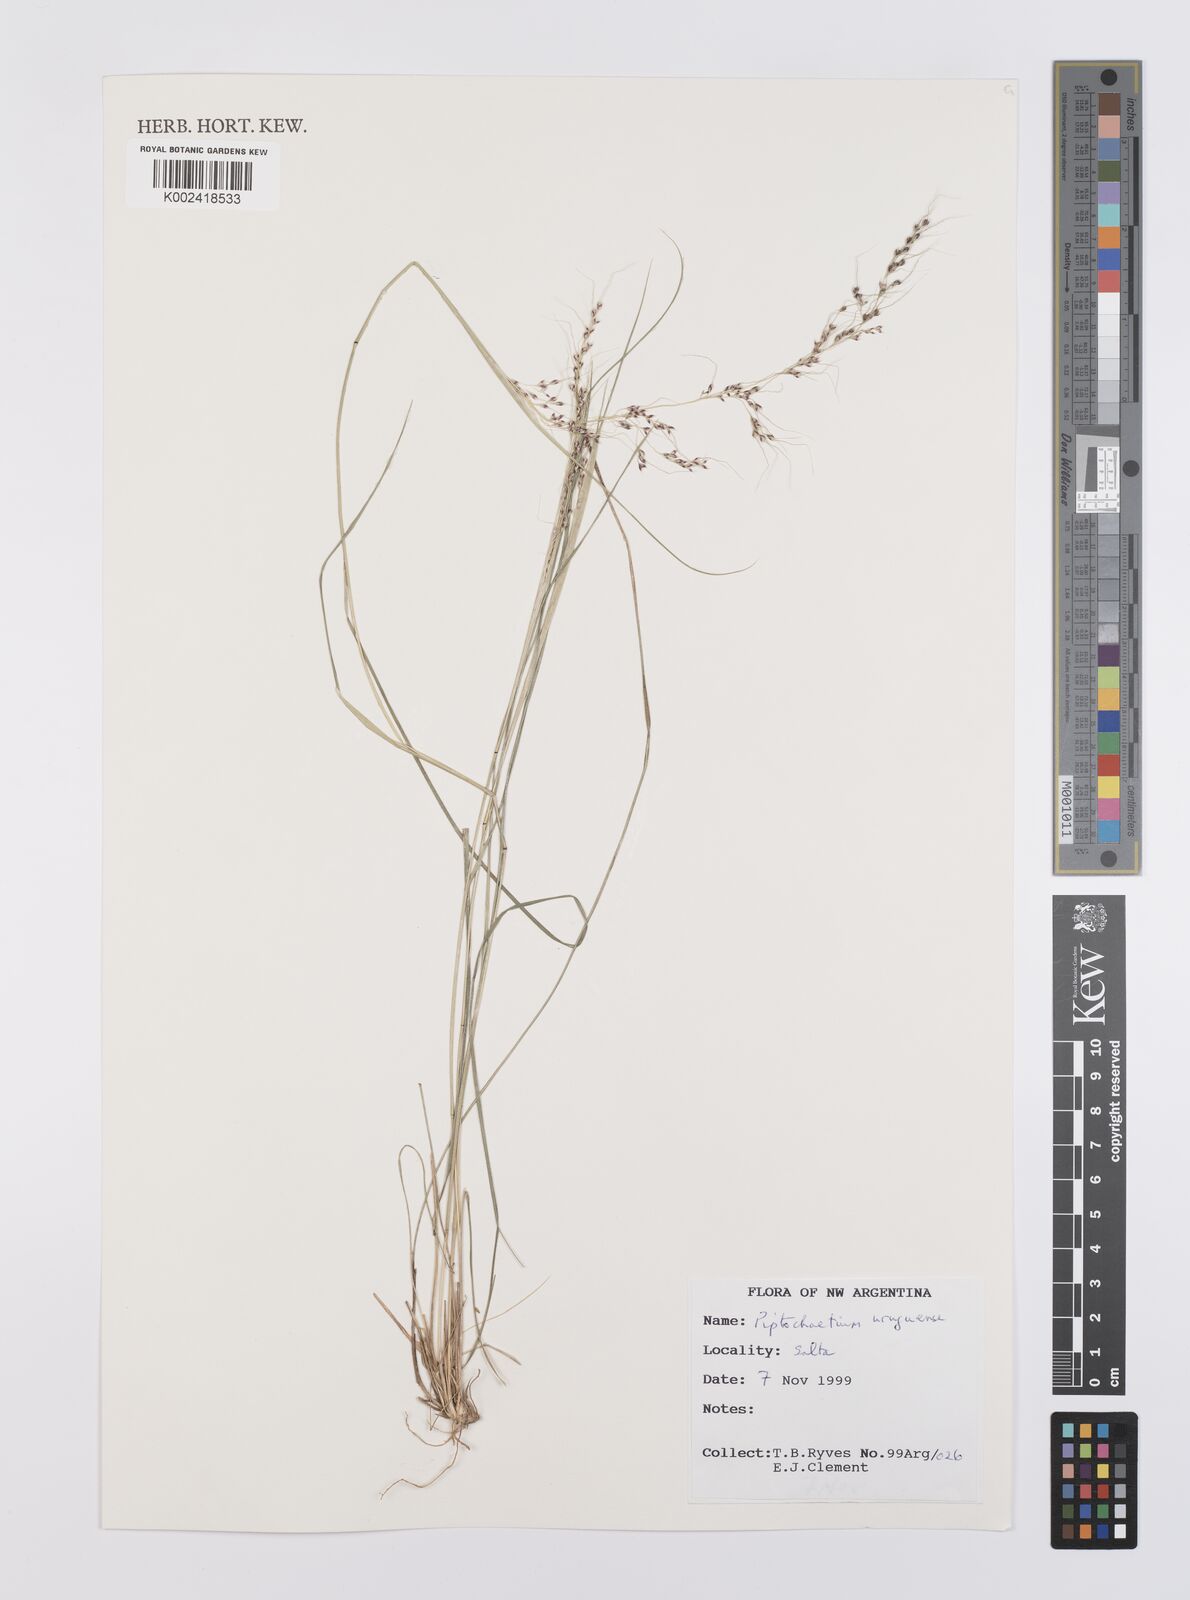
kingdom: Plantae
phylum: Tracheophyta
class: Liliopsida
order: Poales
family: Poaceae
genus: Piptochaetium
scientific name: Piptochaetium uruguense
